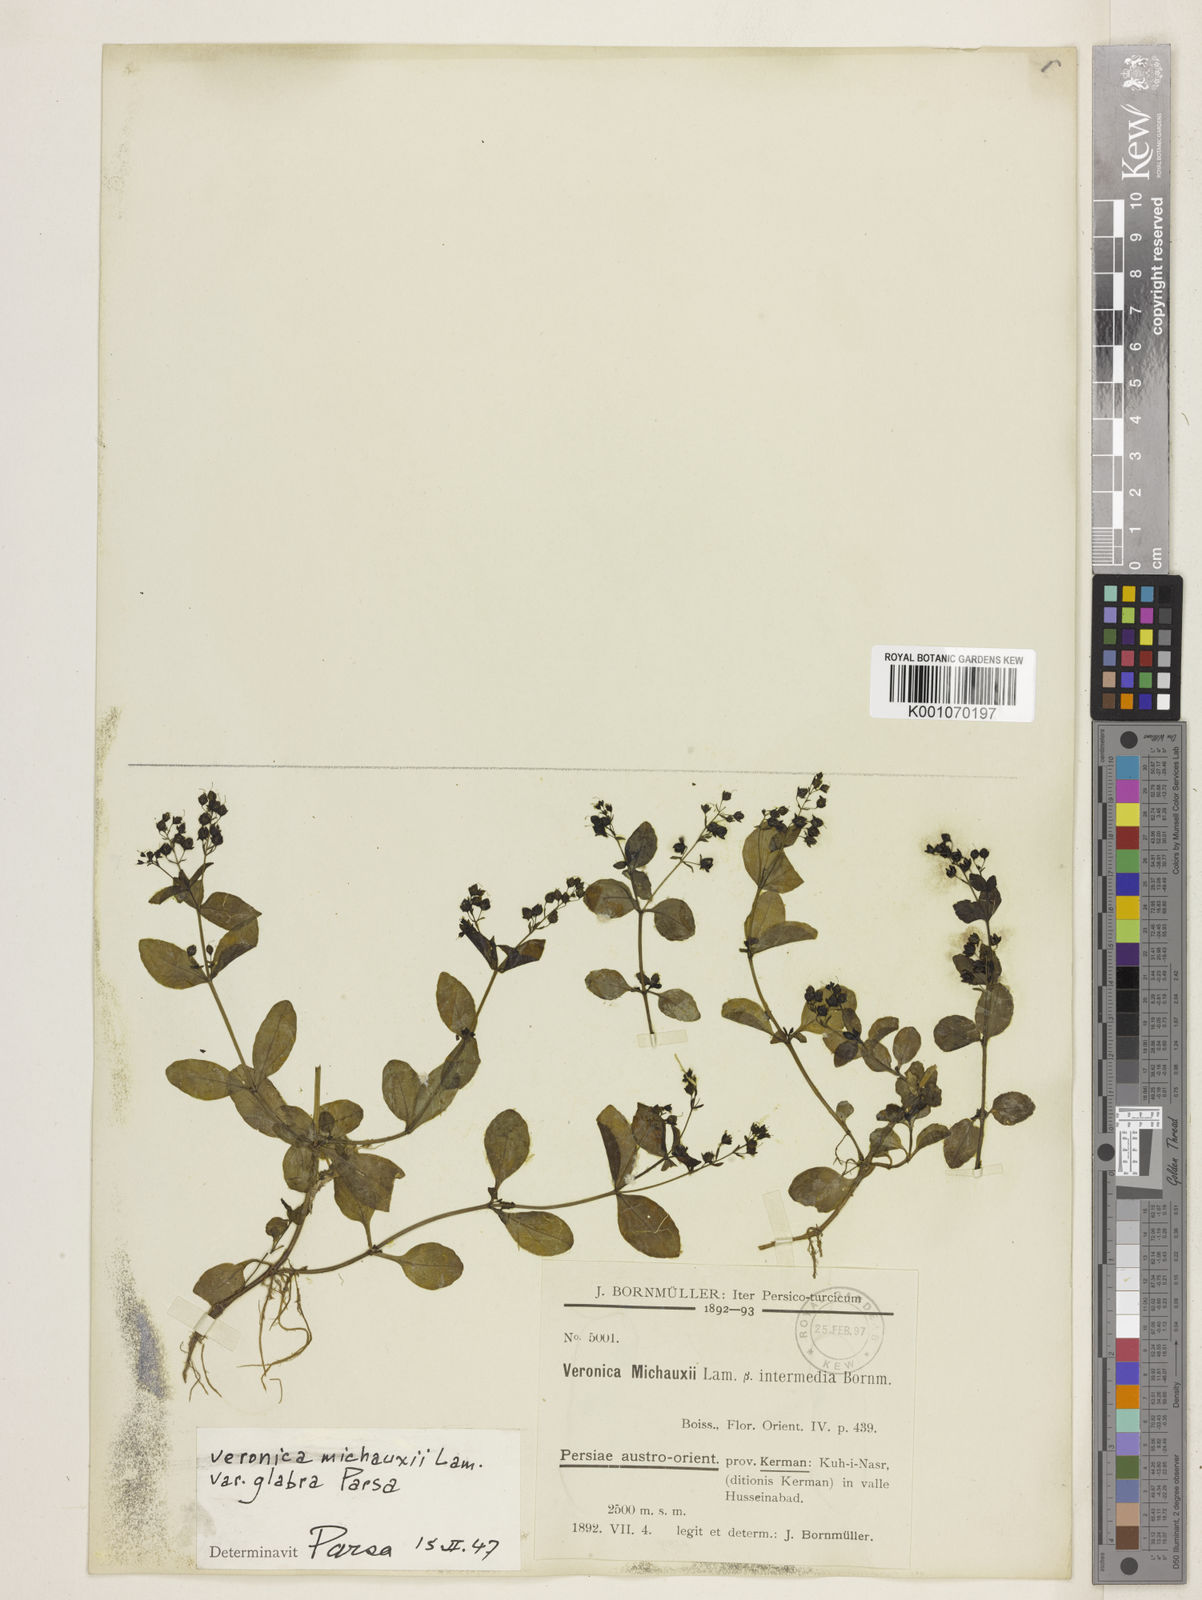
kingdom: Plantae
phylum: Tracheophyta
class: Magnoliopsida
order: Lamiales
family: Plantaginaceae
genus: Veronica
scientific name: Veronica michauxii
